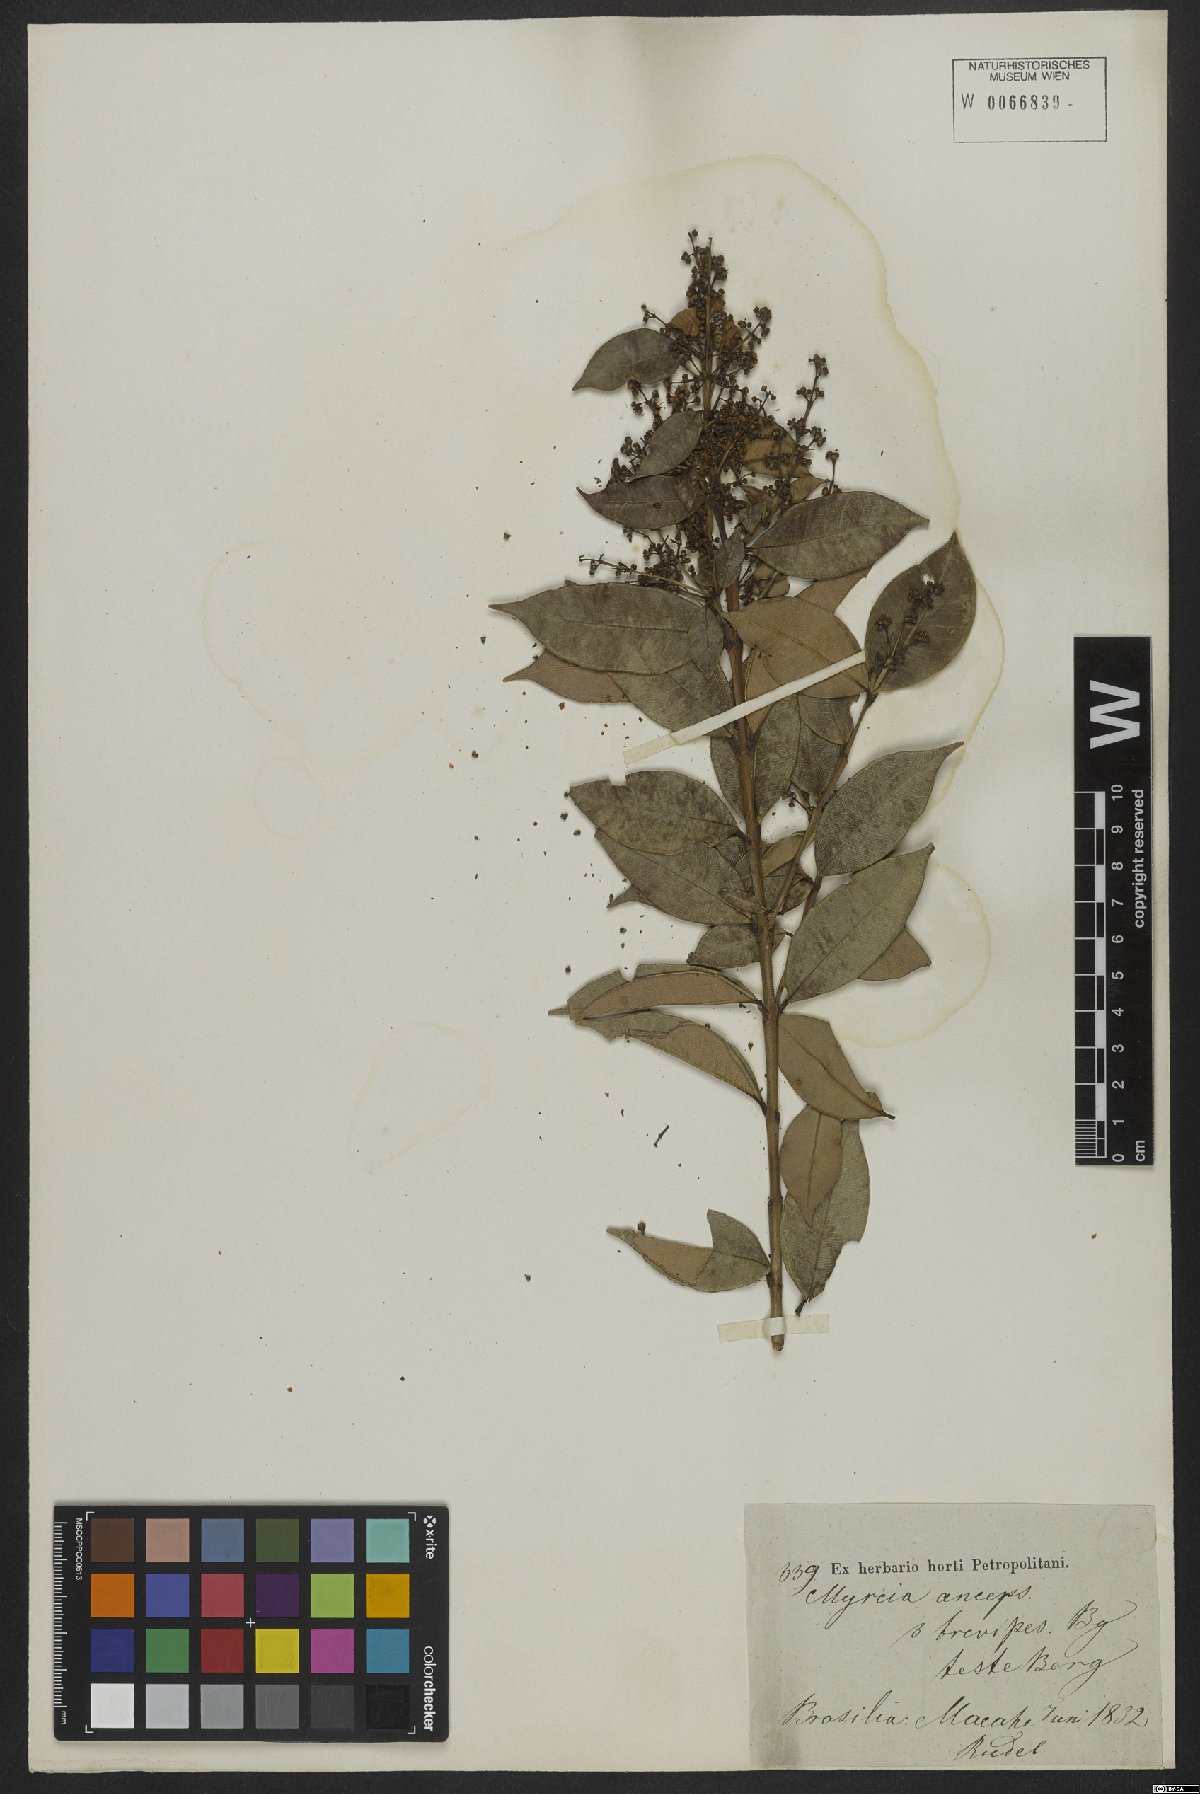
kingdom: Plantae
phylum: Tracheophyta
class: Magnoliopsida
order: Myrtales
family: Myrtaceae
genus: Myrcia
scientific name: Myrcia anceps
